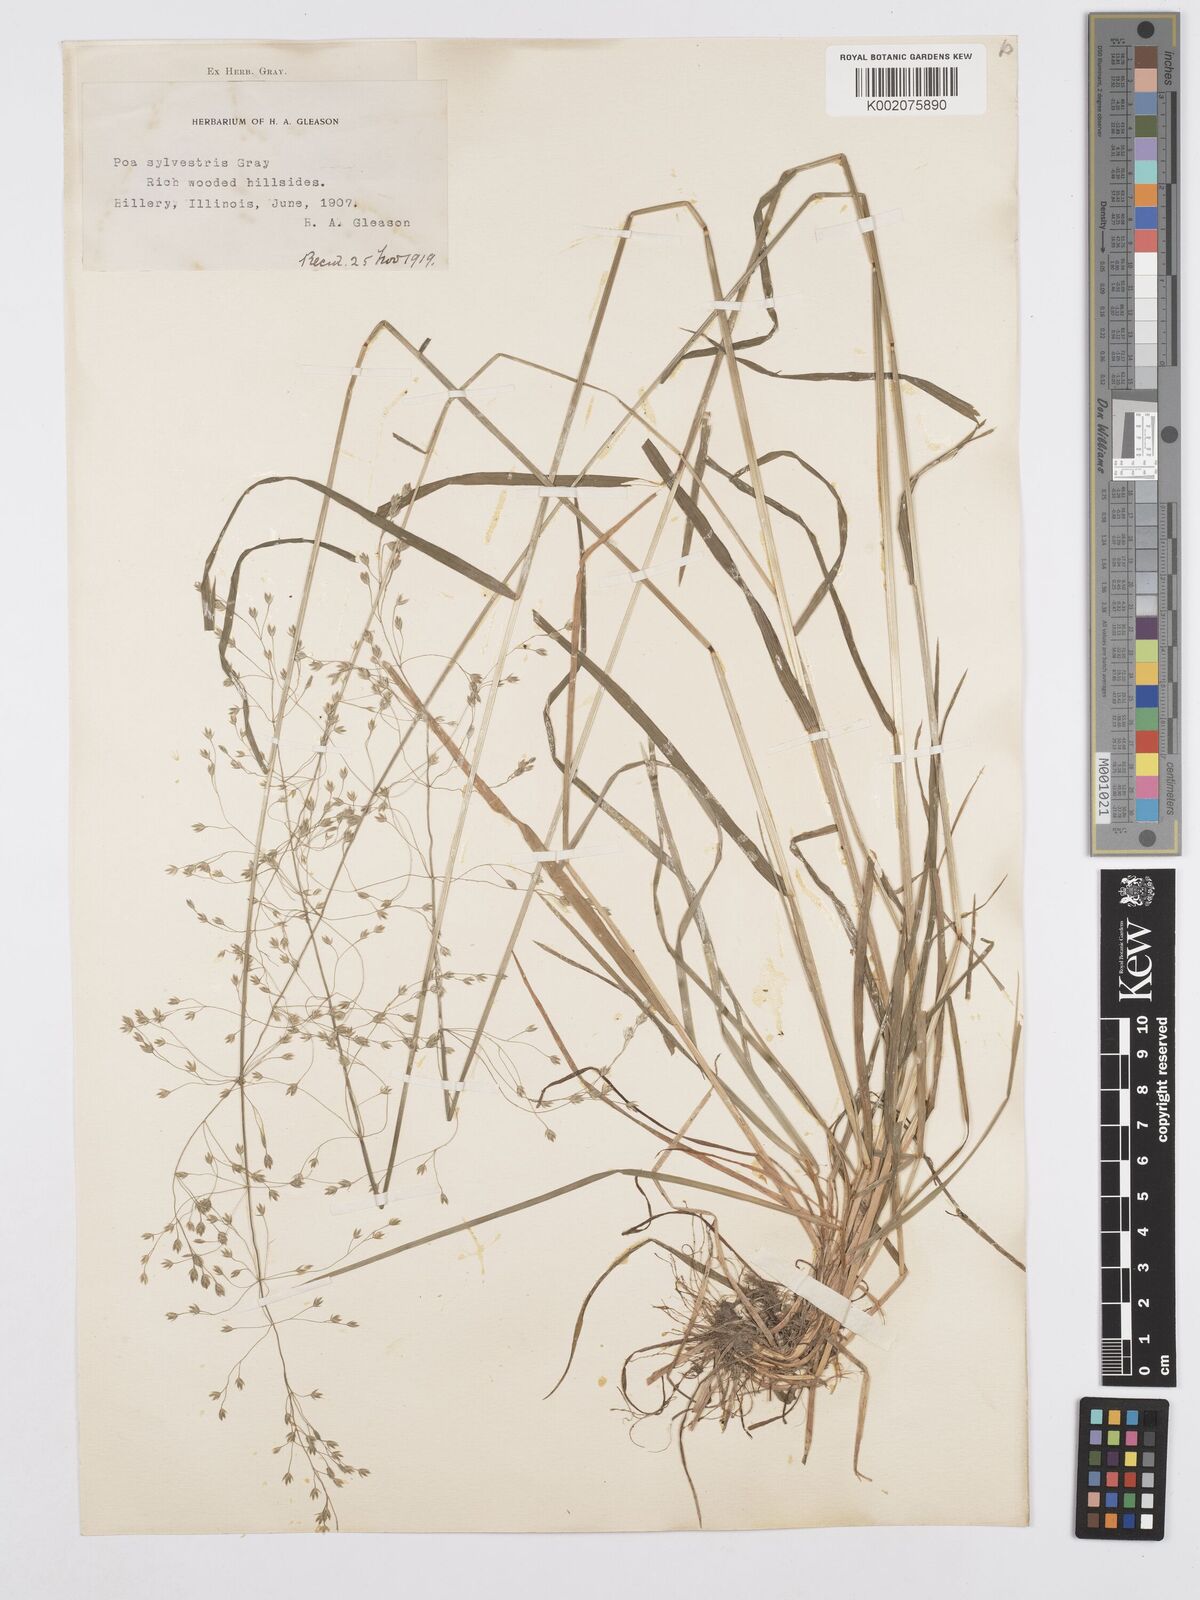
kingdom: Plantae
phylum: Tracheophyta
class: Liliopsida
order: Poales
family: Poaceae
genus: Poa
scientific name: Poa sylvestris
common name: North american woodland bluegrass
